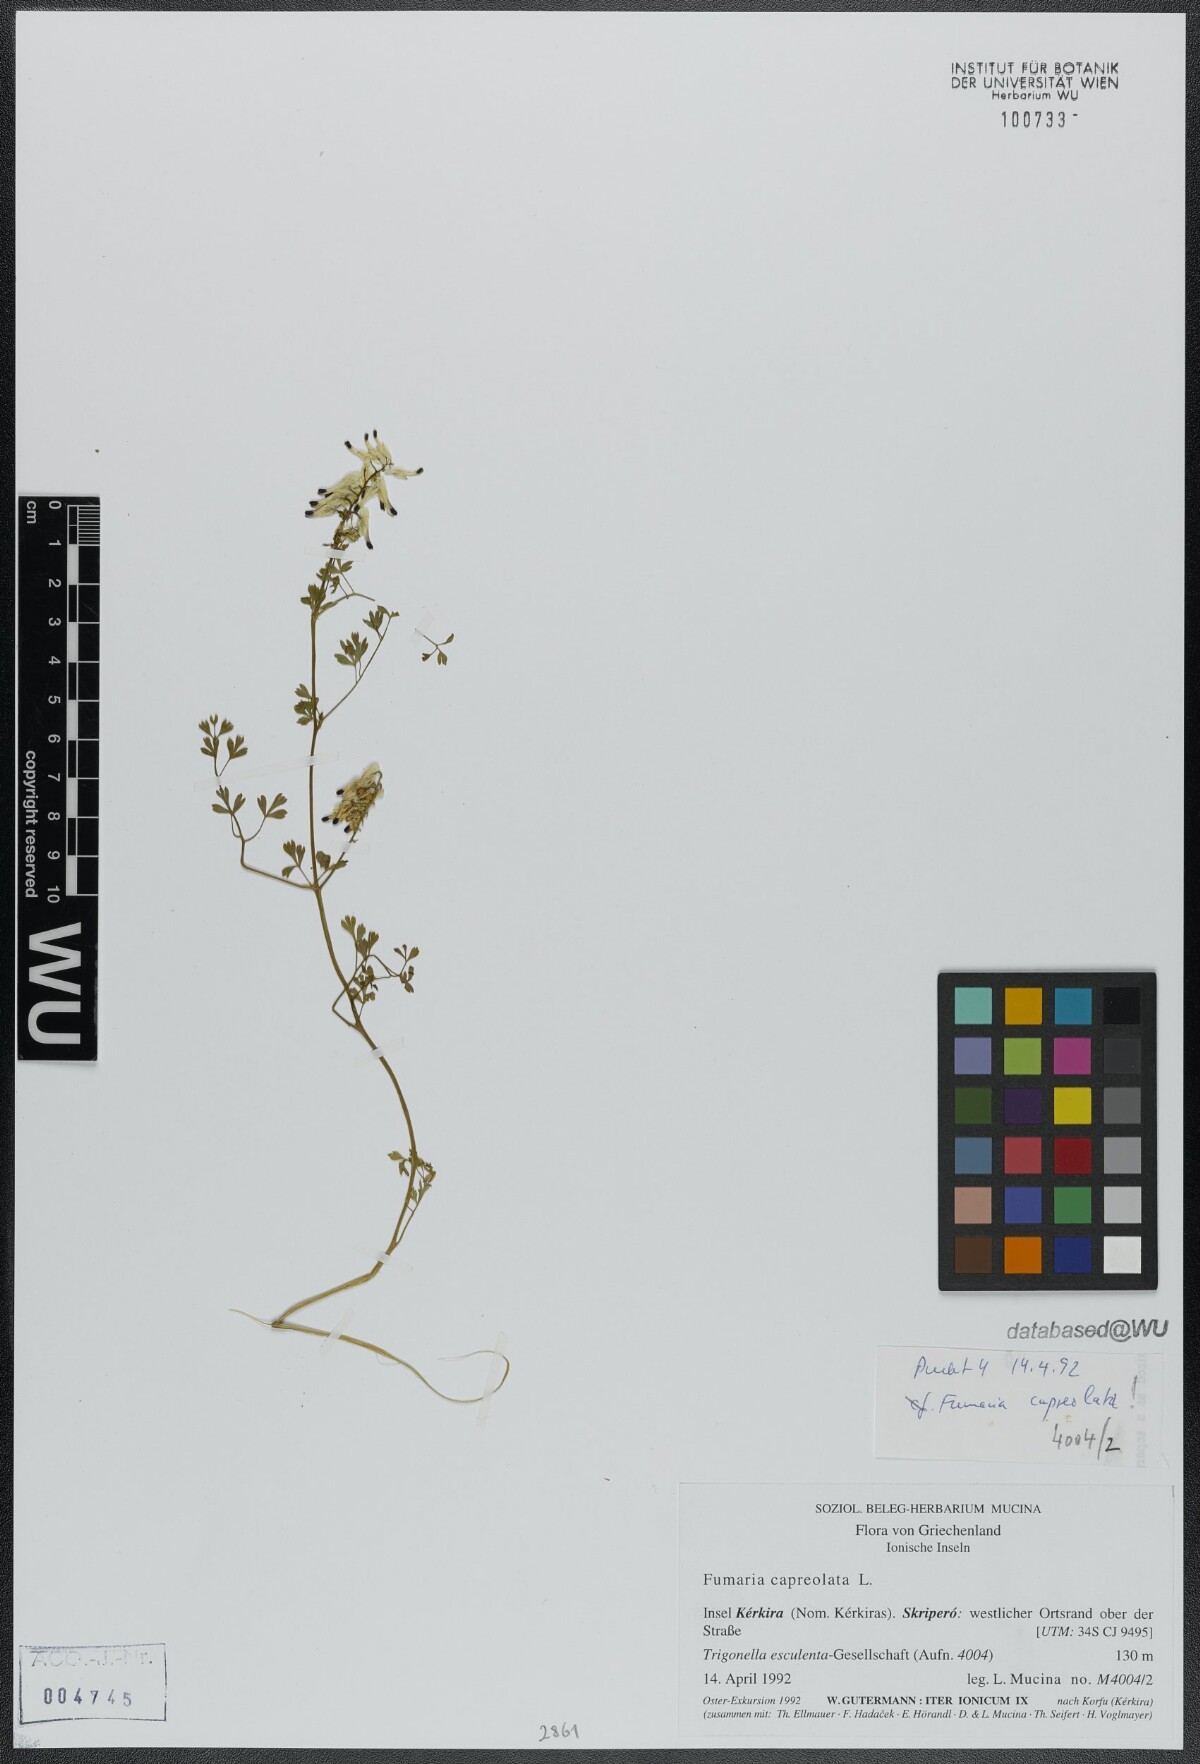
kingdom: Plantae
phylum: Tracheophyta
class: Magnoliopsida
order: Ranunculales
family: Papaveraceae
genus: Fumaria
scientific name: Fumaria capreolata
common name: White ramping-fumitory
